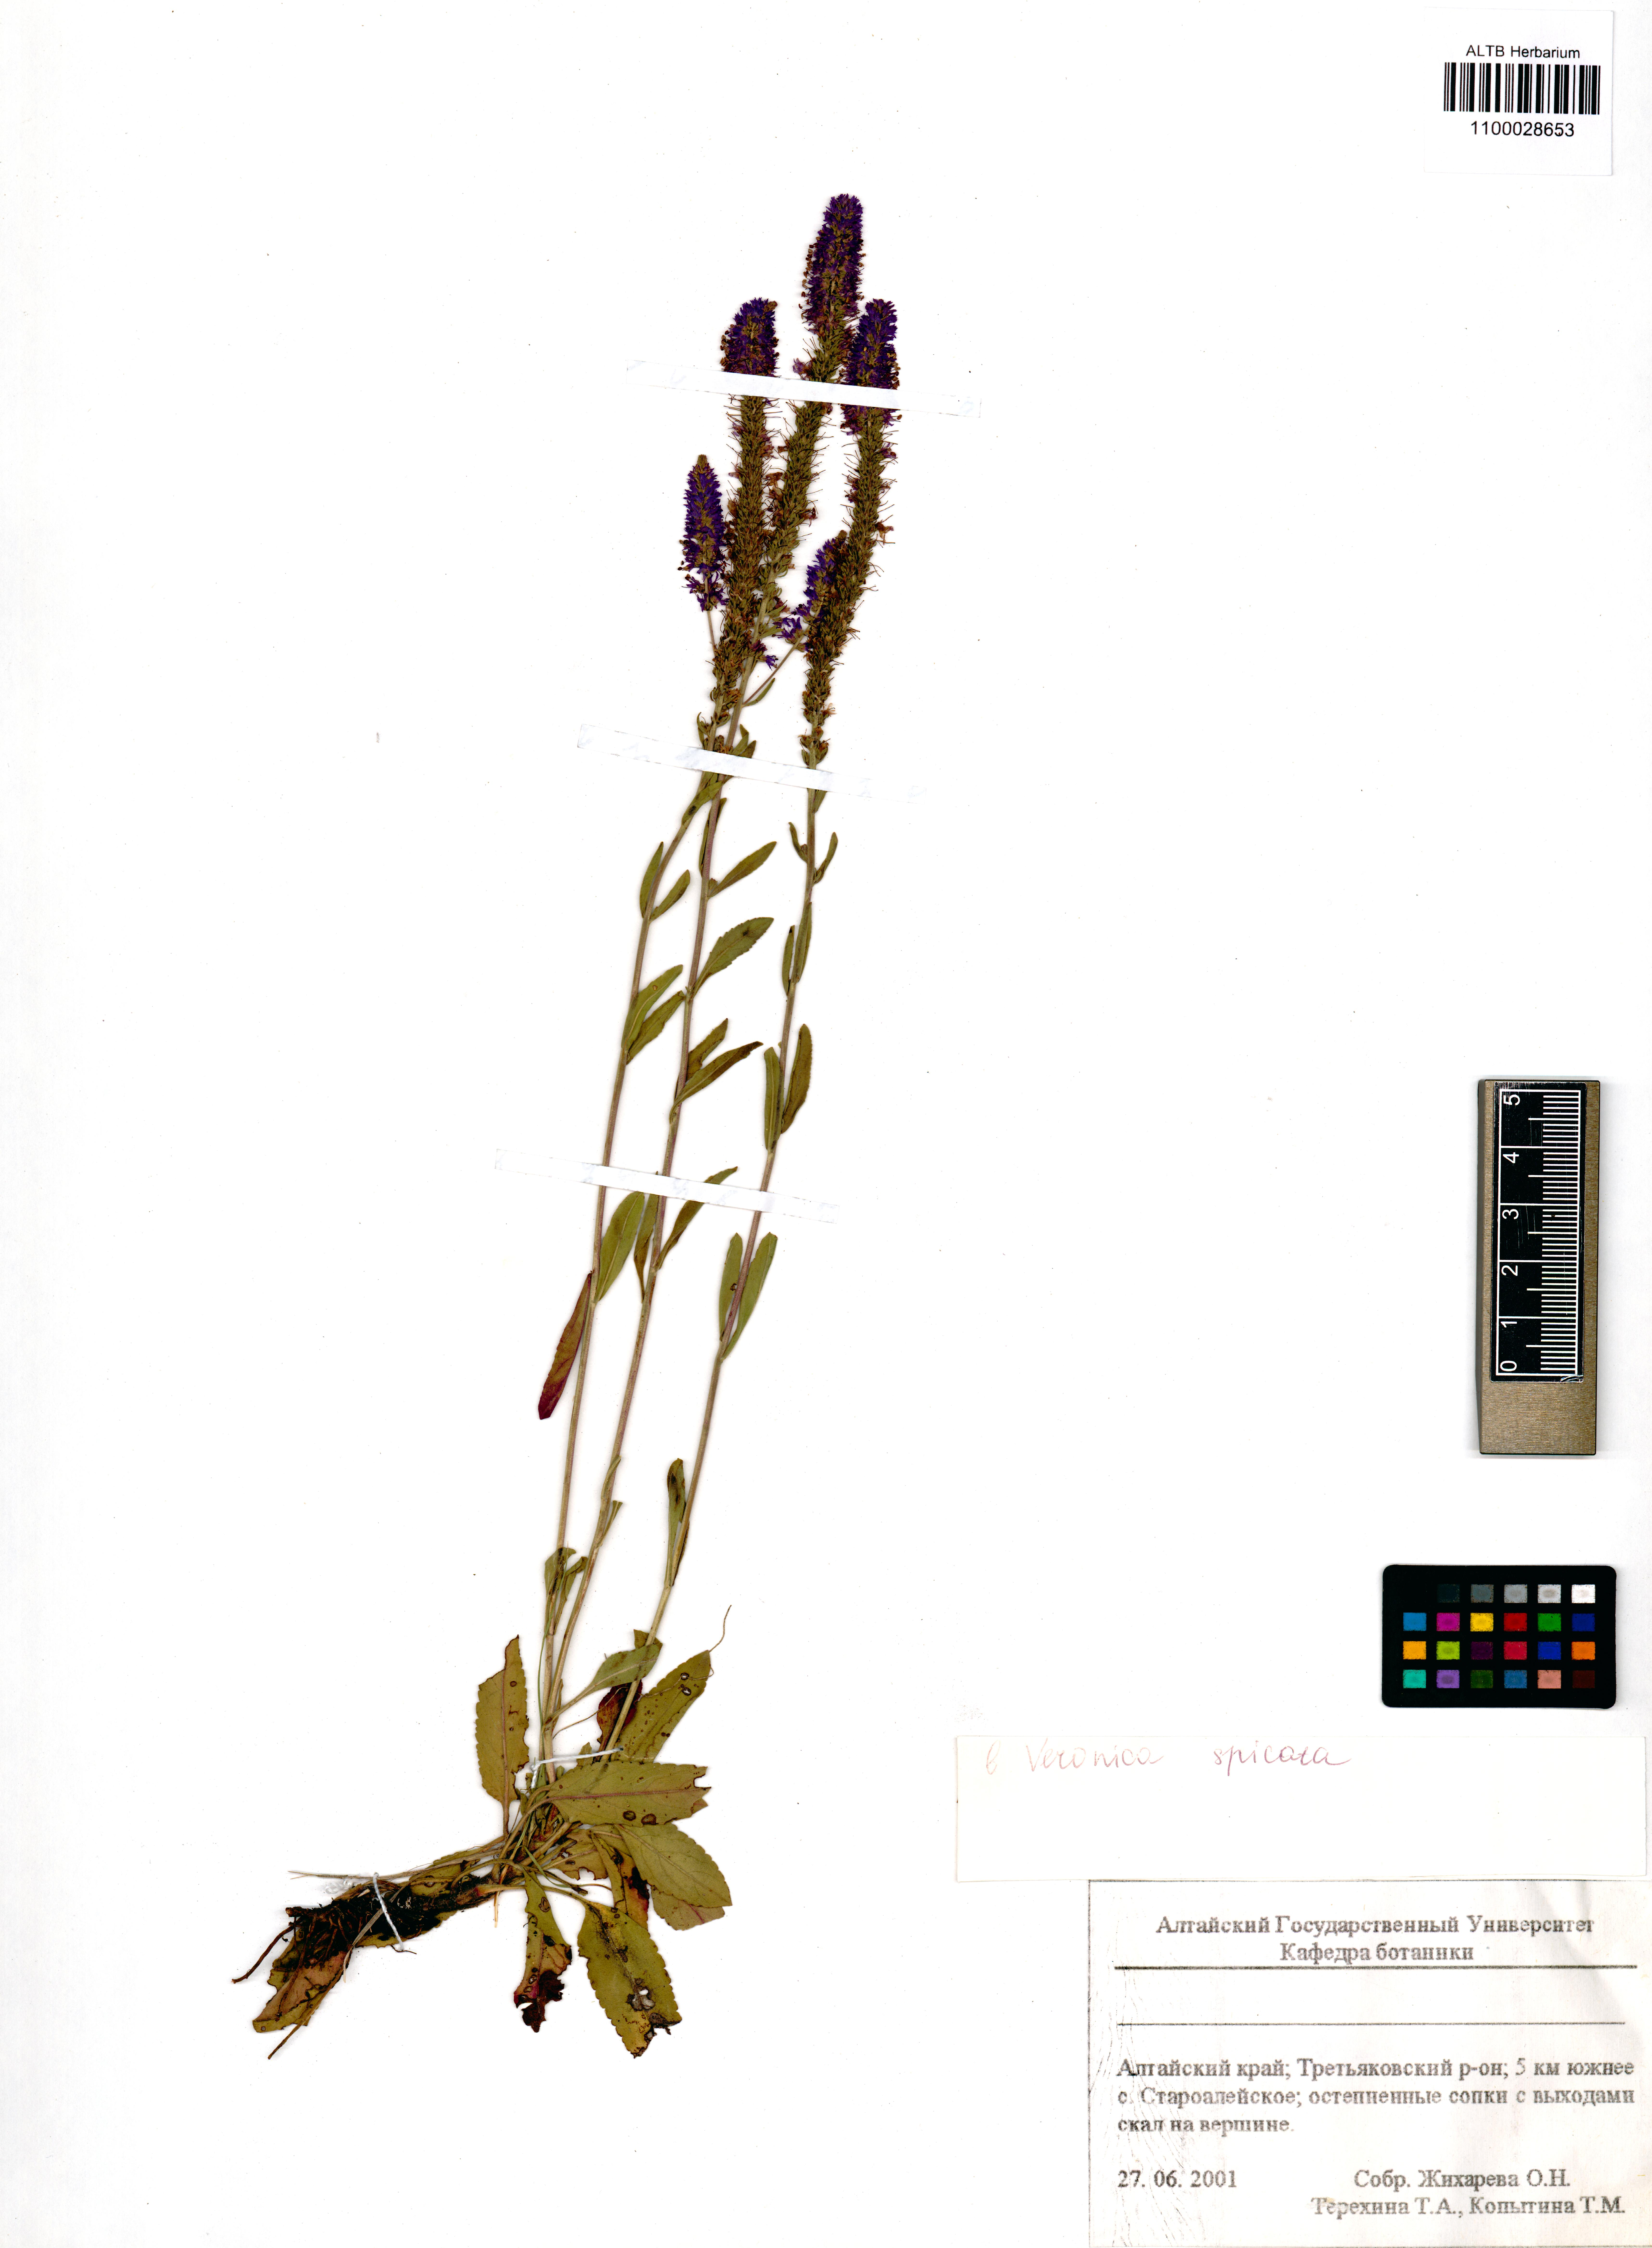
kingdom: Plantae
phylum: Tracheophyta
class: Magnoliopsida
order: Lamiales
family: Plantaginaceae
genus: Veronica
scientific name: Veronica spicata
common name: Spiked speedwell
